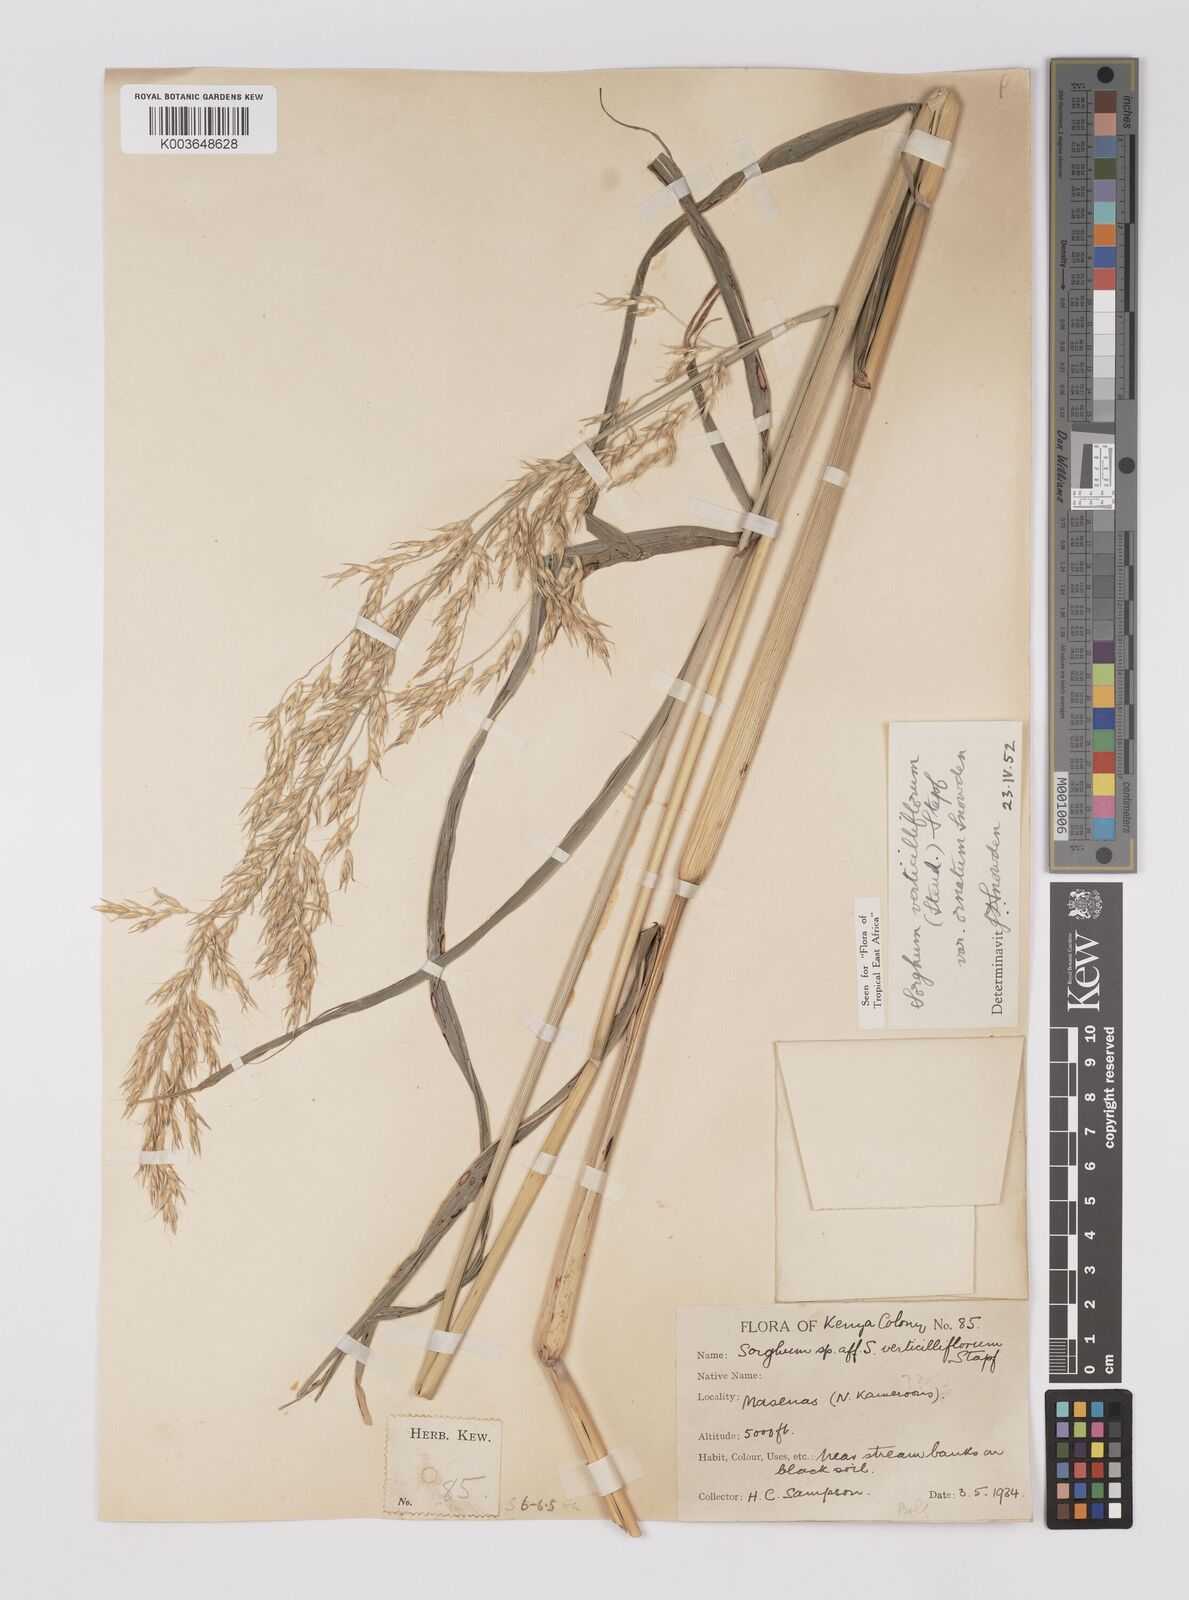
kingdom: Plantae
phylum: Tracheophyta
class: Liliopsida
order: Poales
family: Poaceae
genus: Sorghum
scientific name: Sorghum arundinaceum
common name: Sorghum
